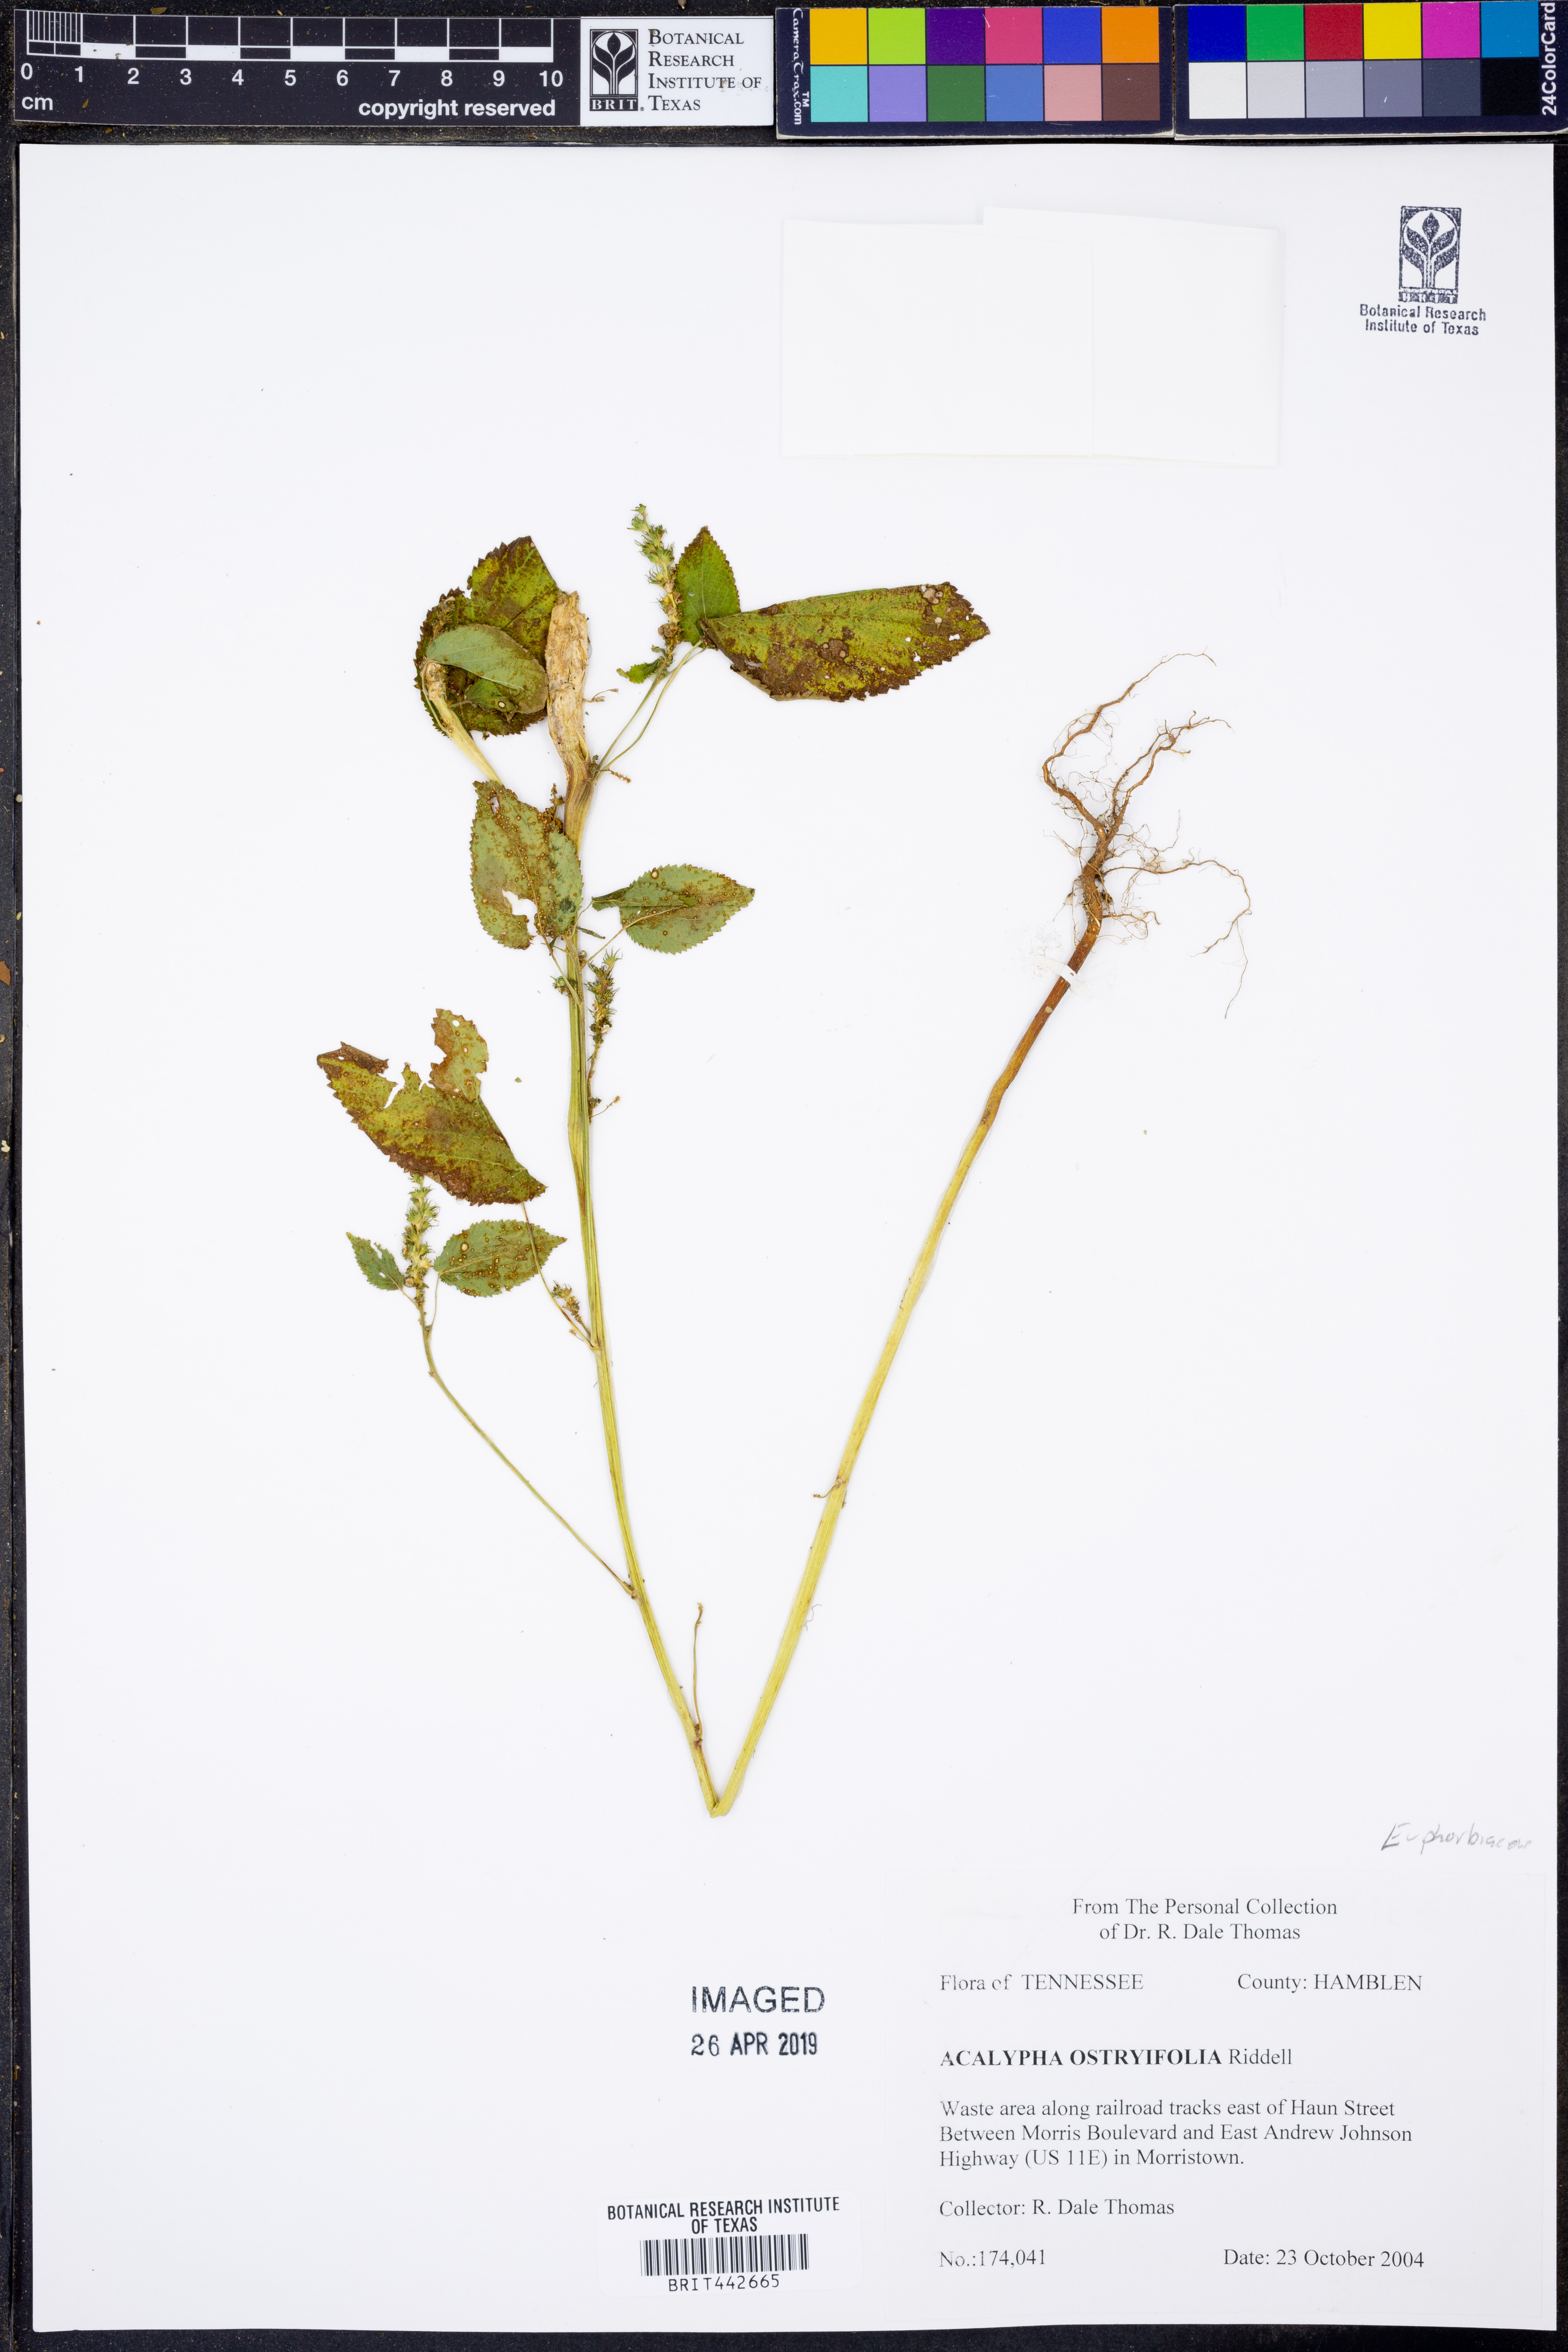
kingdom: Plantae
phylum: Tracheophyta
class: Magnoliopsida
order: Malpighiales
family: Euphorbiaceae
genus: Acalypha
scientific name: Acalypha persimilis
